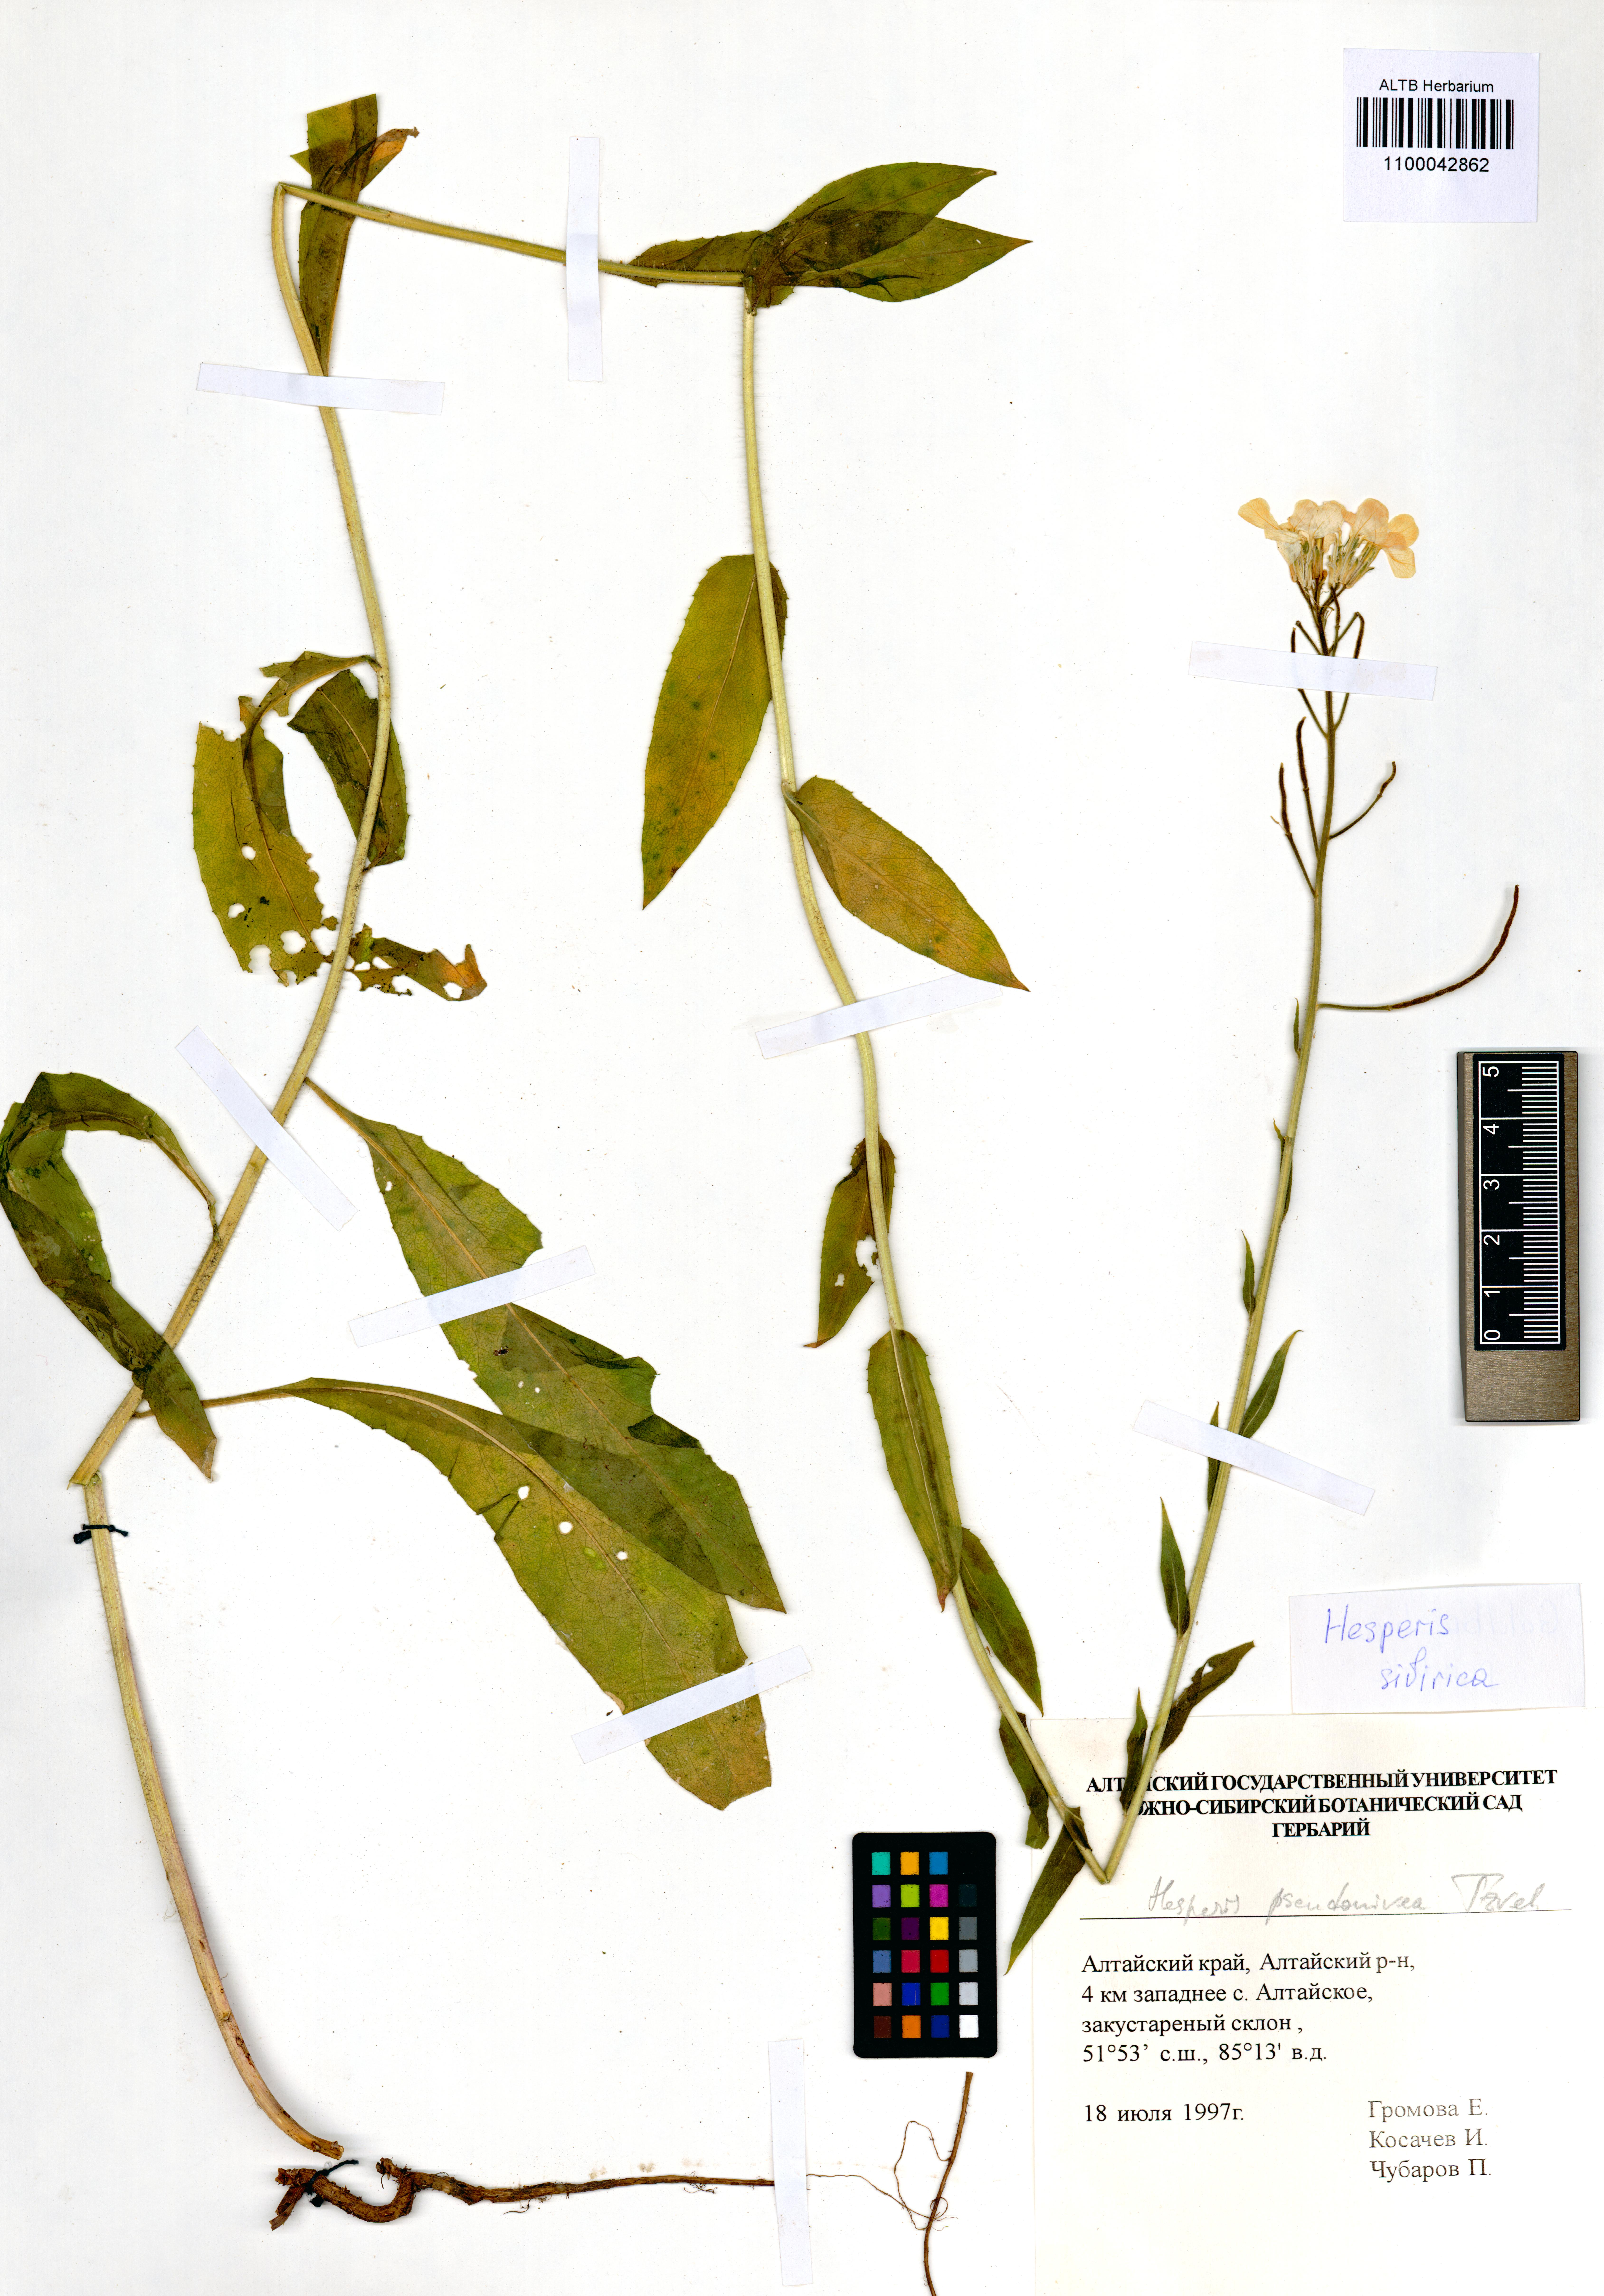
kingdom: Plantae
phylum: Tracheophyta
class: Magnoliopsida
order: Brassicales
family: Brassicaceae
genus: Hesperis
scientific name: Hesperis sibirica
